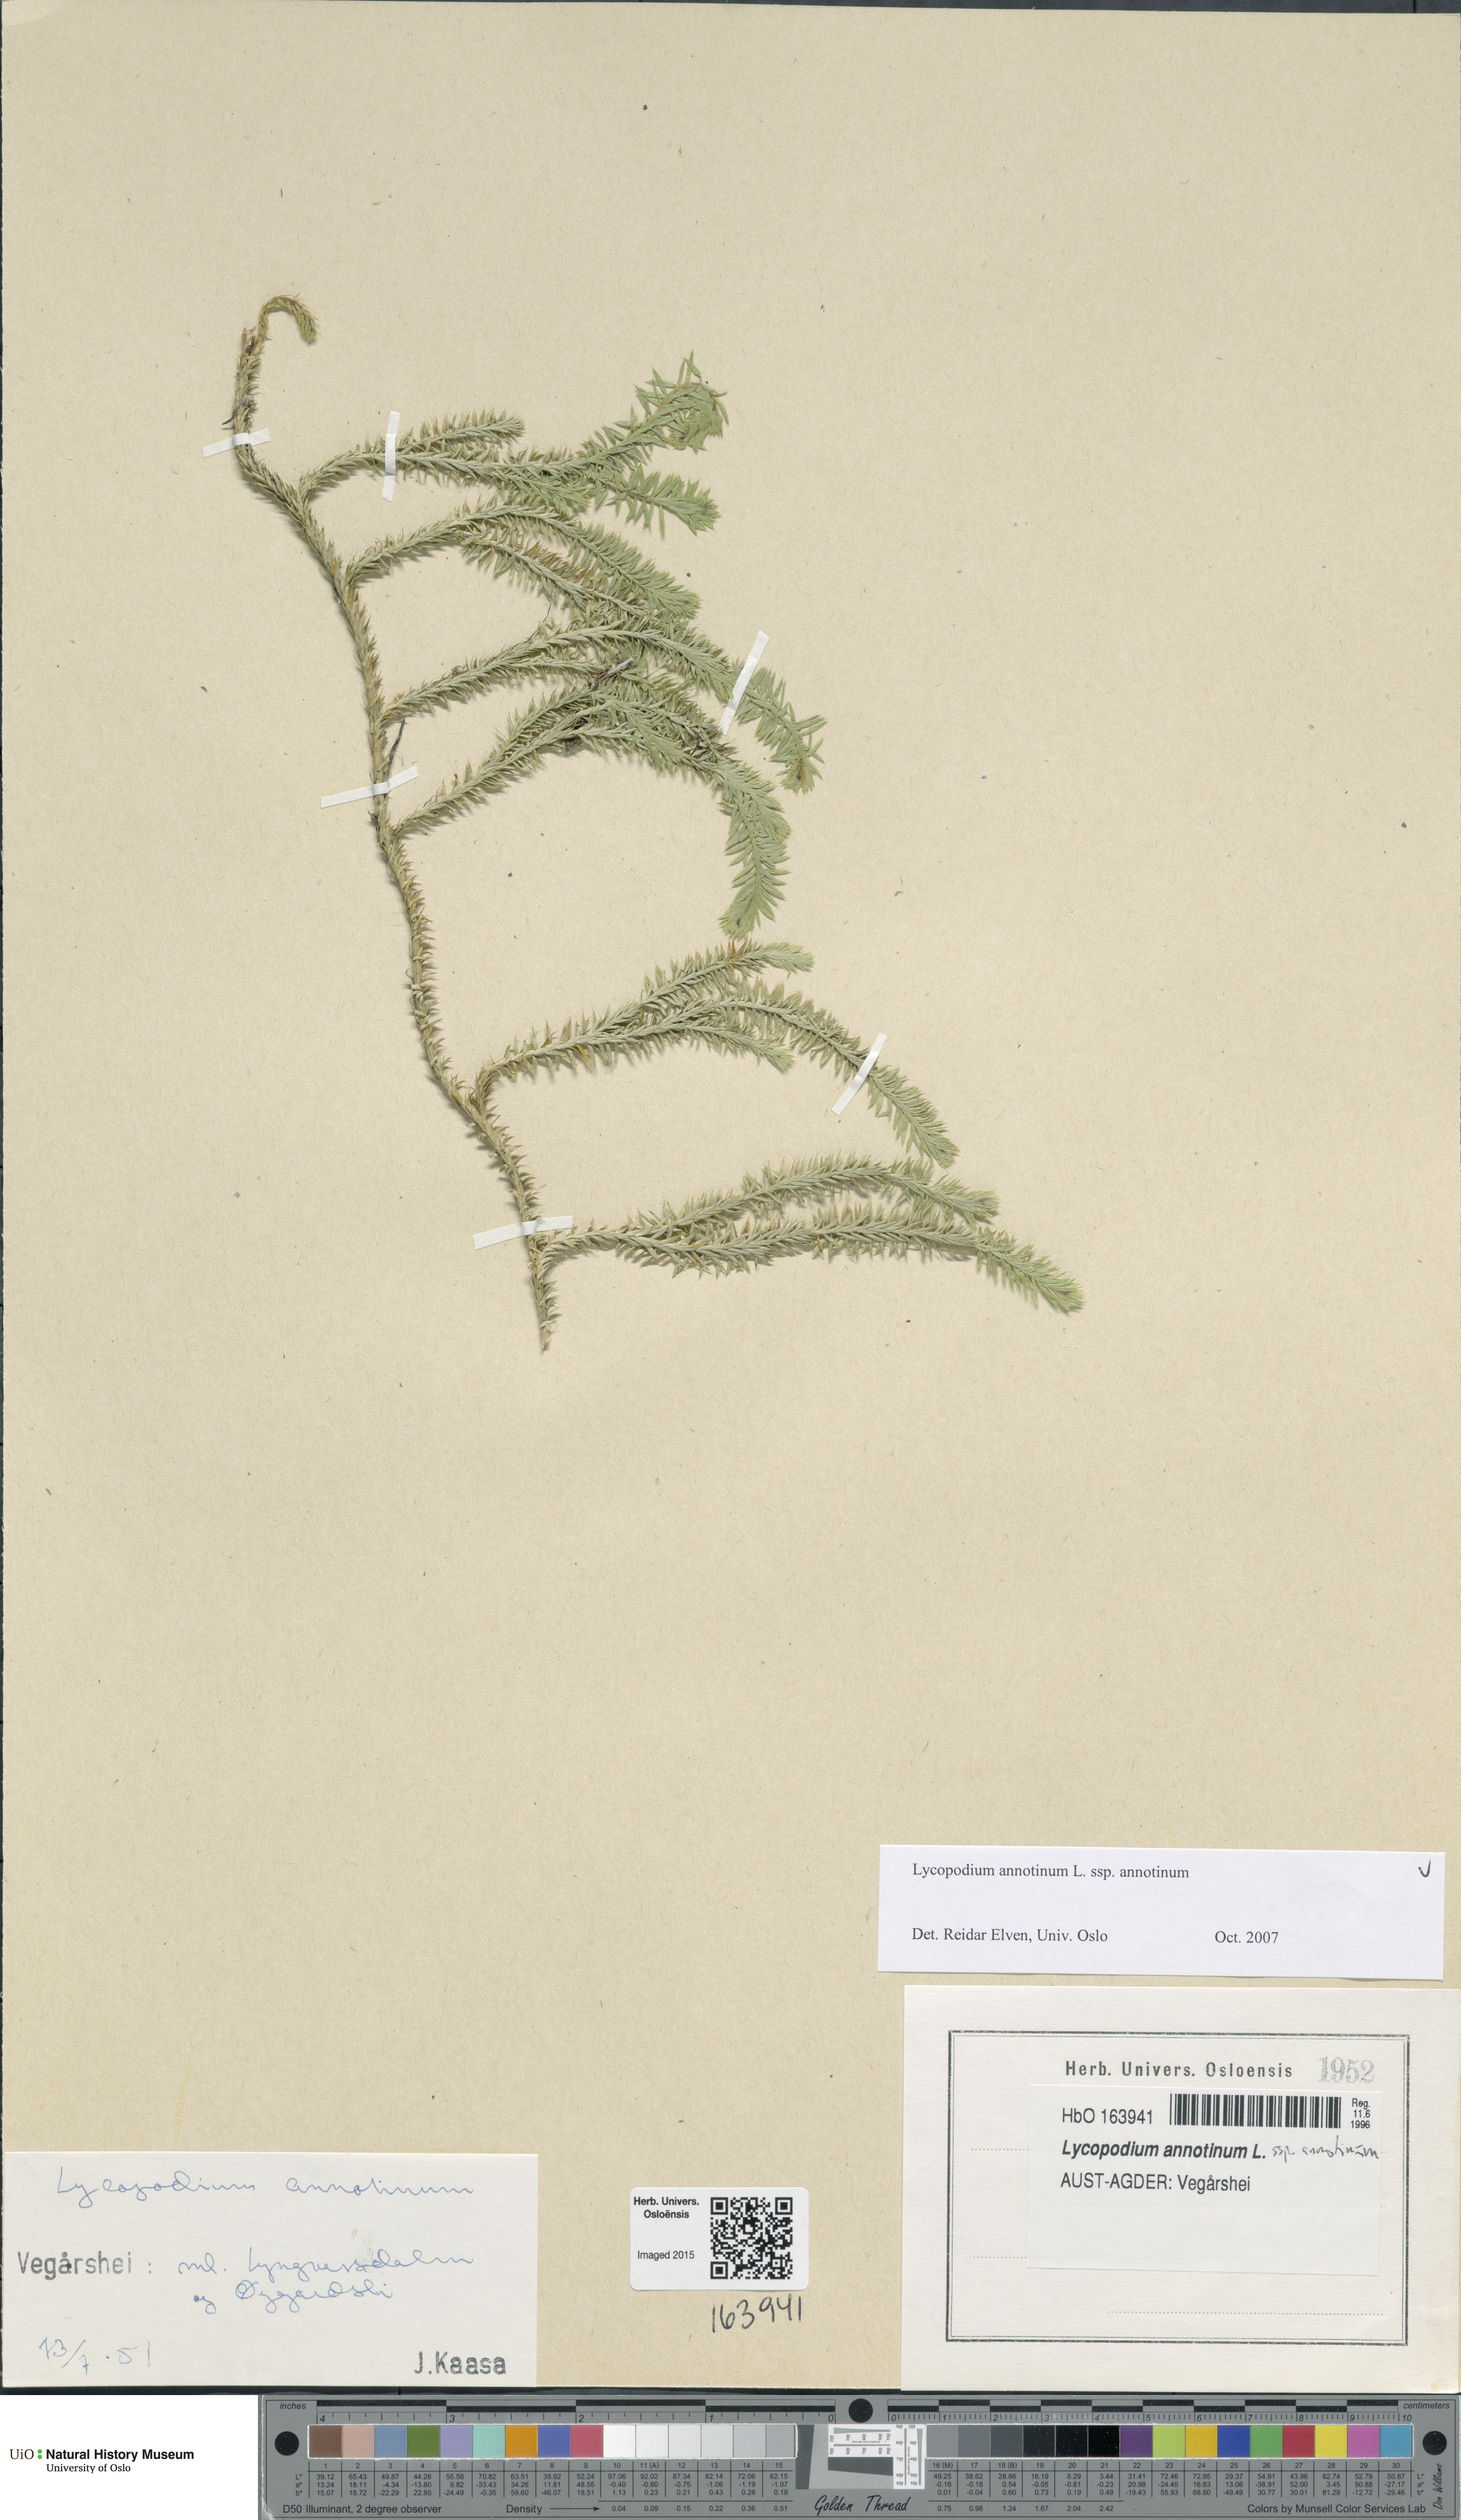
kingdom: Plantae
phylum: Tracheophyta
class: Lycopodiopsida
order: Lycopodiales
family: Lycopodiaceae
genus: Spinulum
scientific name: Spinulum annotinum
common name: Interrupted club-moss
